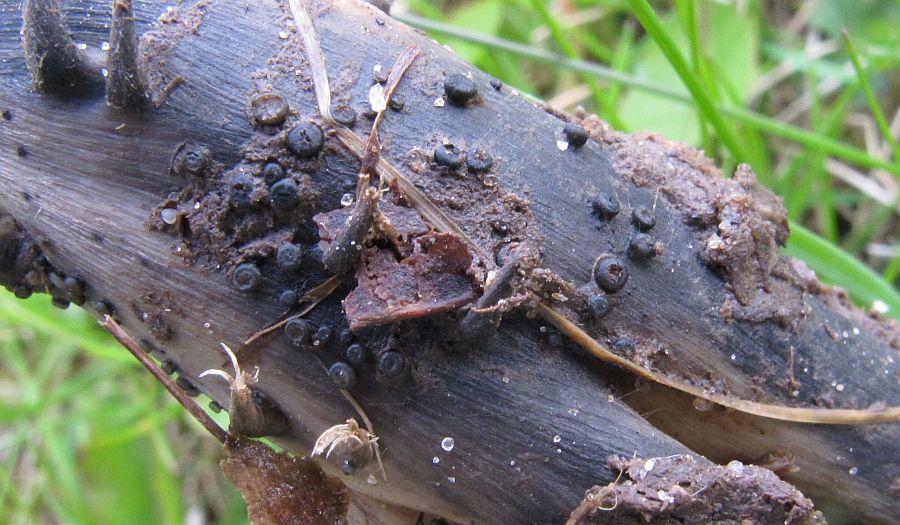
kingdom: Fungi
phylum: Ascomycota
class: Leotiomycetes
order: Helotiales
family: Heterosphaeriaceae
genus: Heterosphaeria
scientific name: Heterosphaeria
